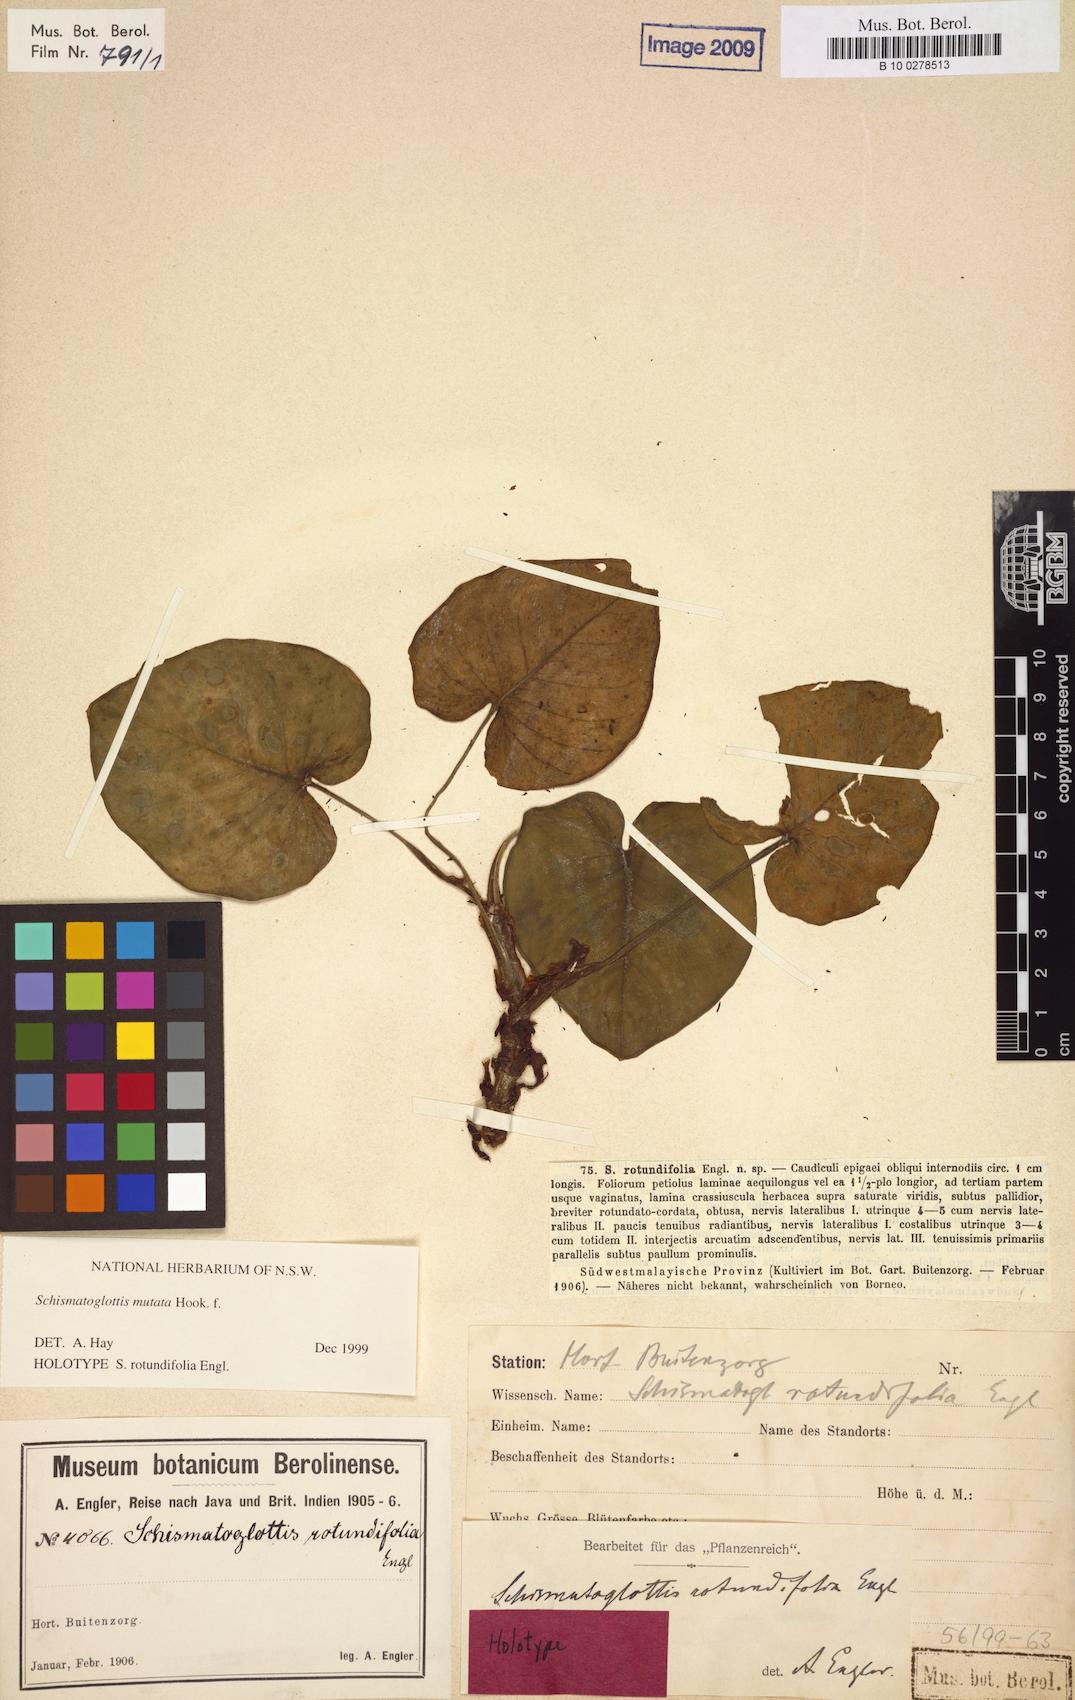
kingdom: Plantae
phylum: Tracheophyta
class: Liliopsida
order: Alismatales
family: Araceae
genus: Apoballis
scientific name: Apoballis mutata
